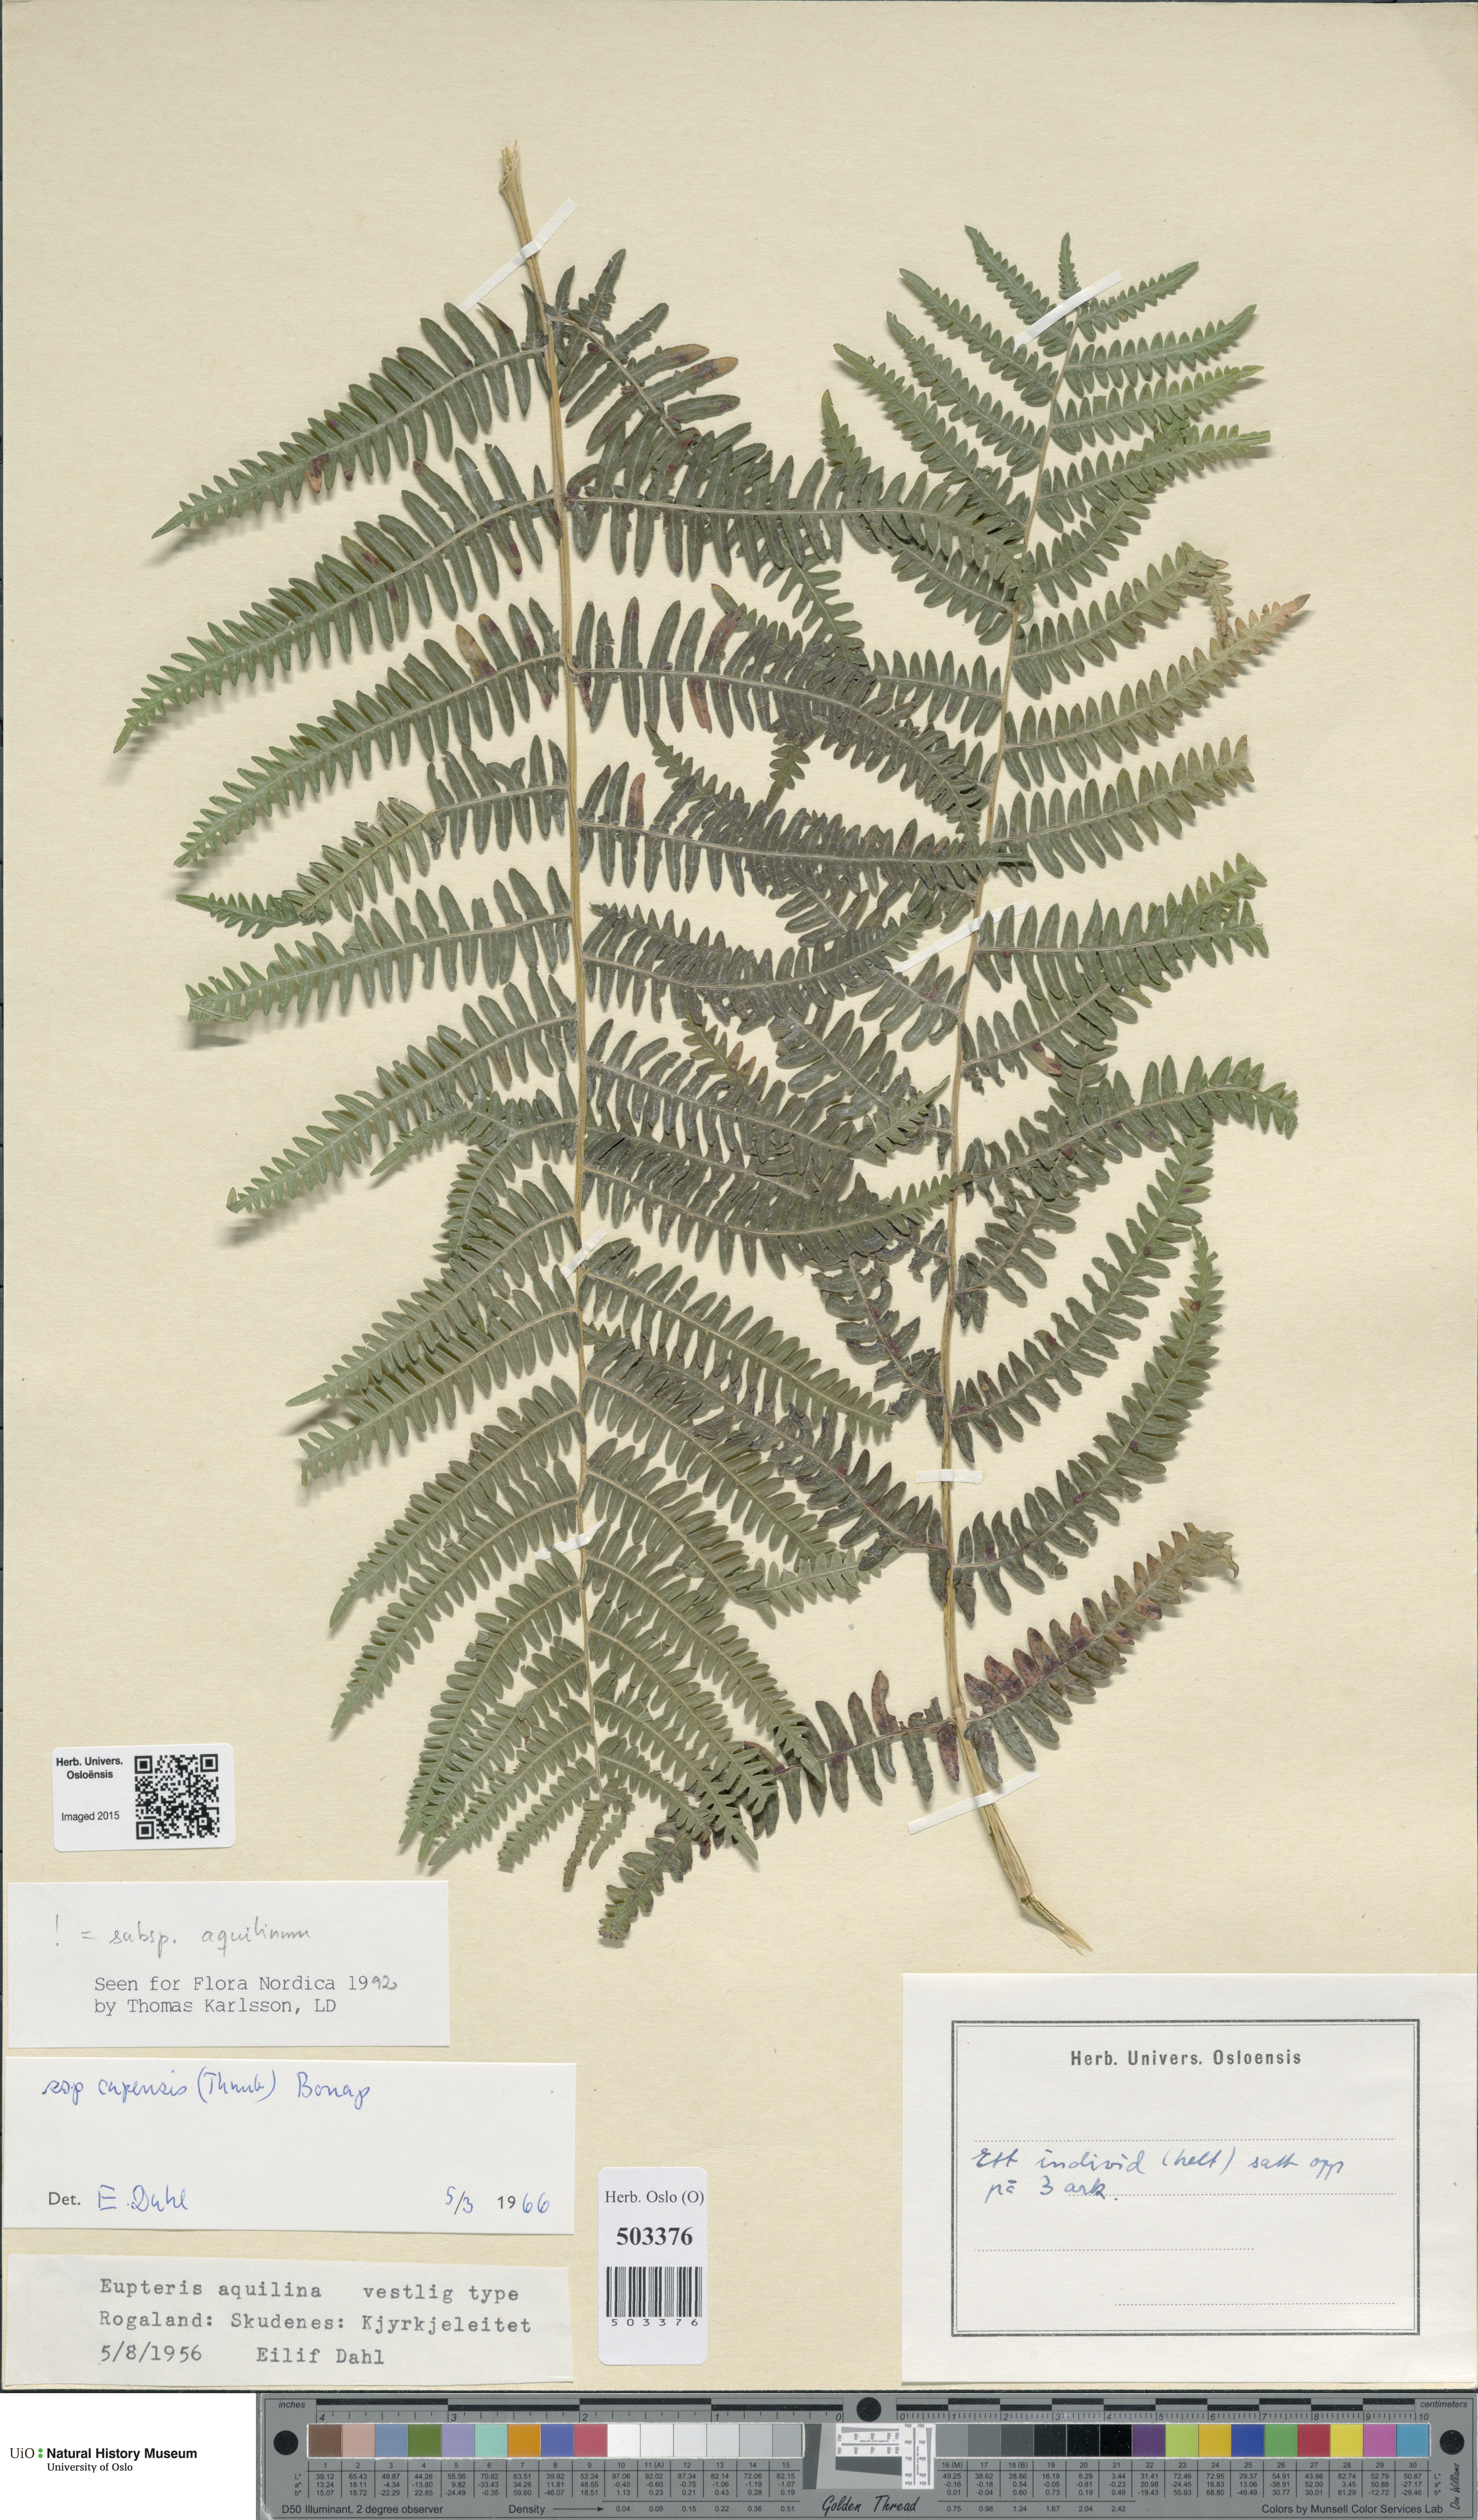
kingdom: Plantae
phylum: Tracheophyta
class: Polypodiopsida
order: Polypodiales
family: Dennstaedtiaceae
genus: Pteridium
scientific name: Pteridium aquilinum
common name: Bracken
